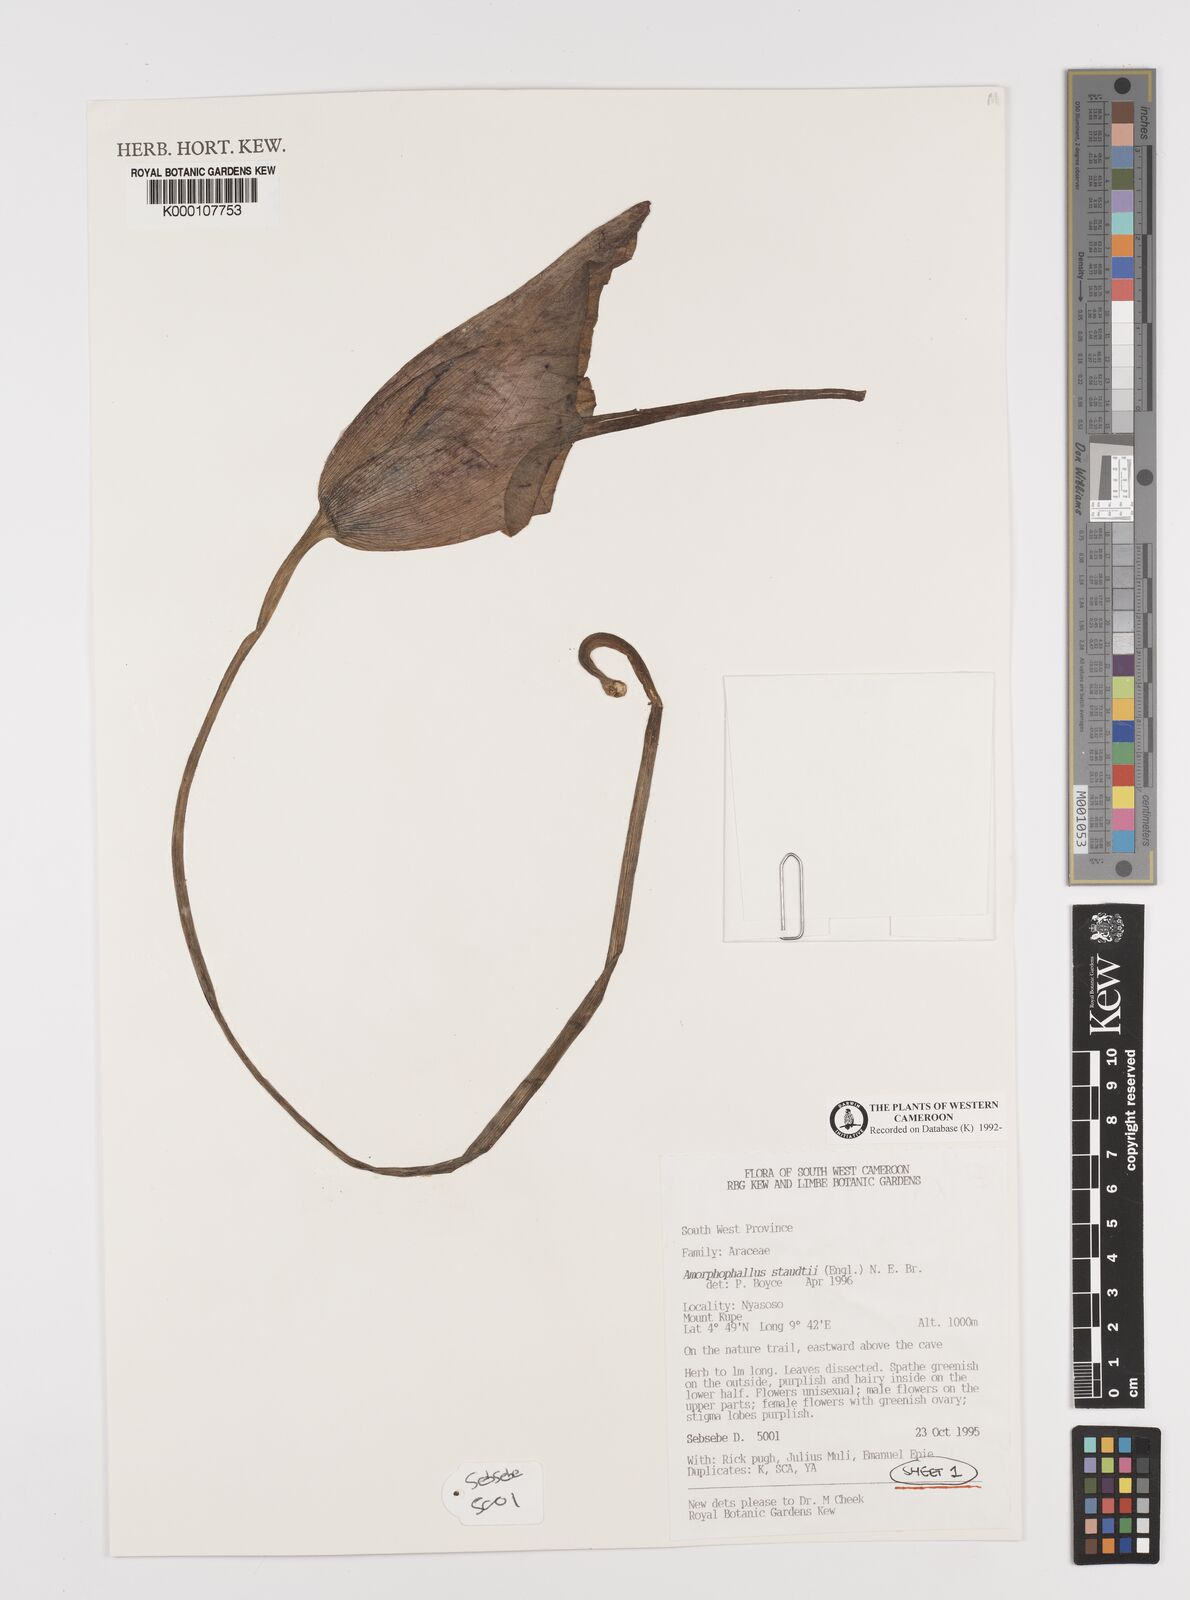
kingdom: Plantae
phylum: Tracheophyta
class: Liliopsida
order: Alismatales
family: Araceae
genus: Amorphophallus
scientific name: Amorphophallus staudtii
